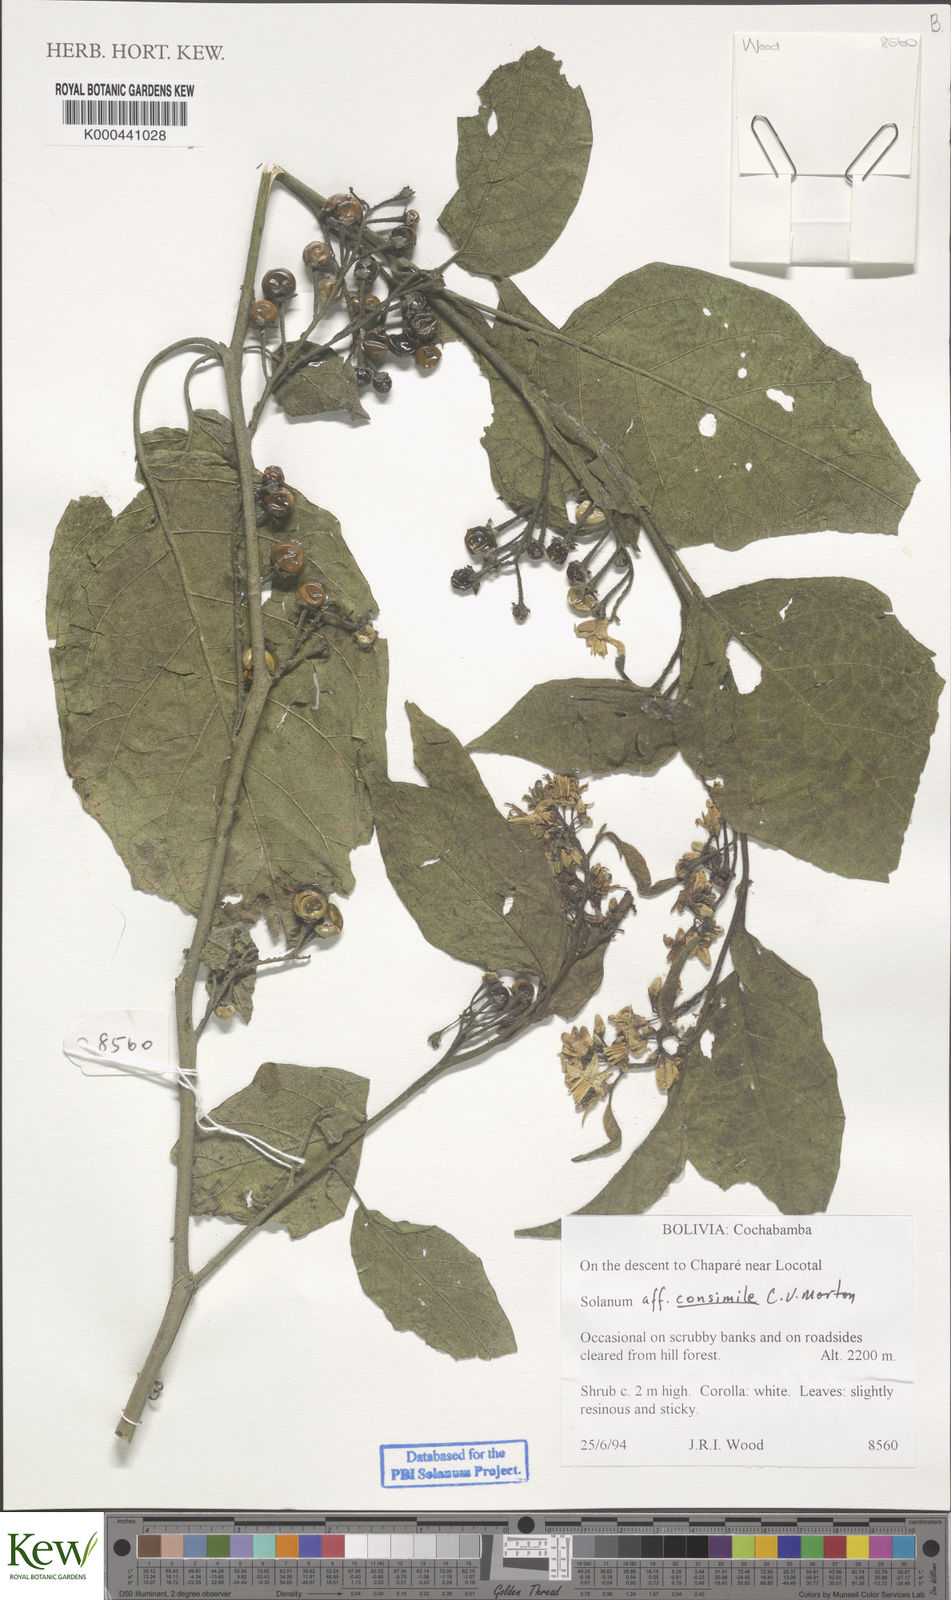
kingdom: Plantae
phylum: Tracheophyta
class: Magnoliopsida
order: Solanales
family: Solanaceae
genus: Solanum
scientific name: Solanum consimile
